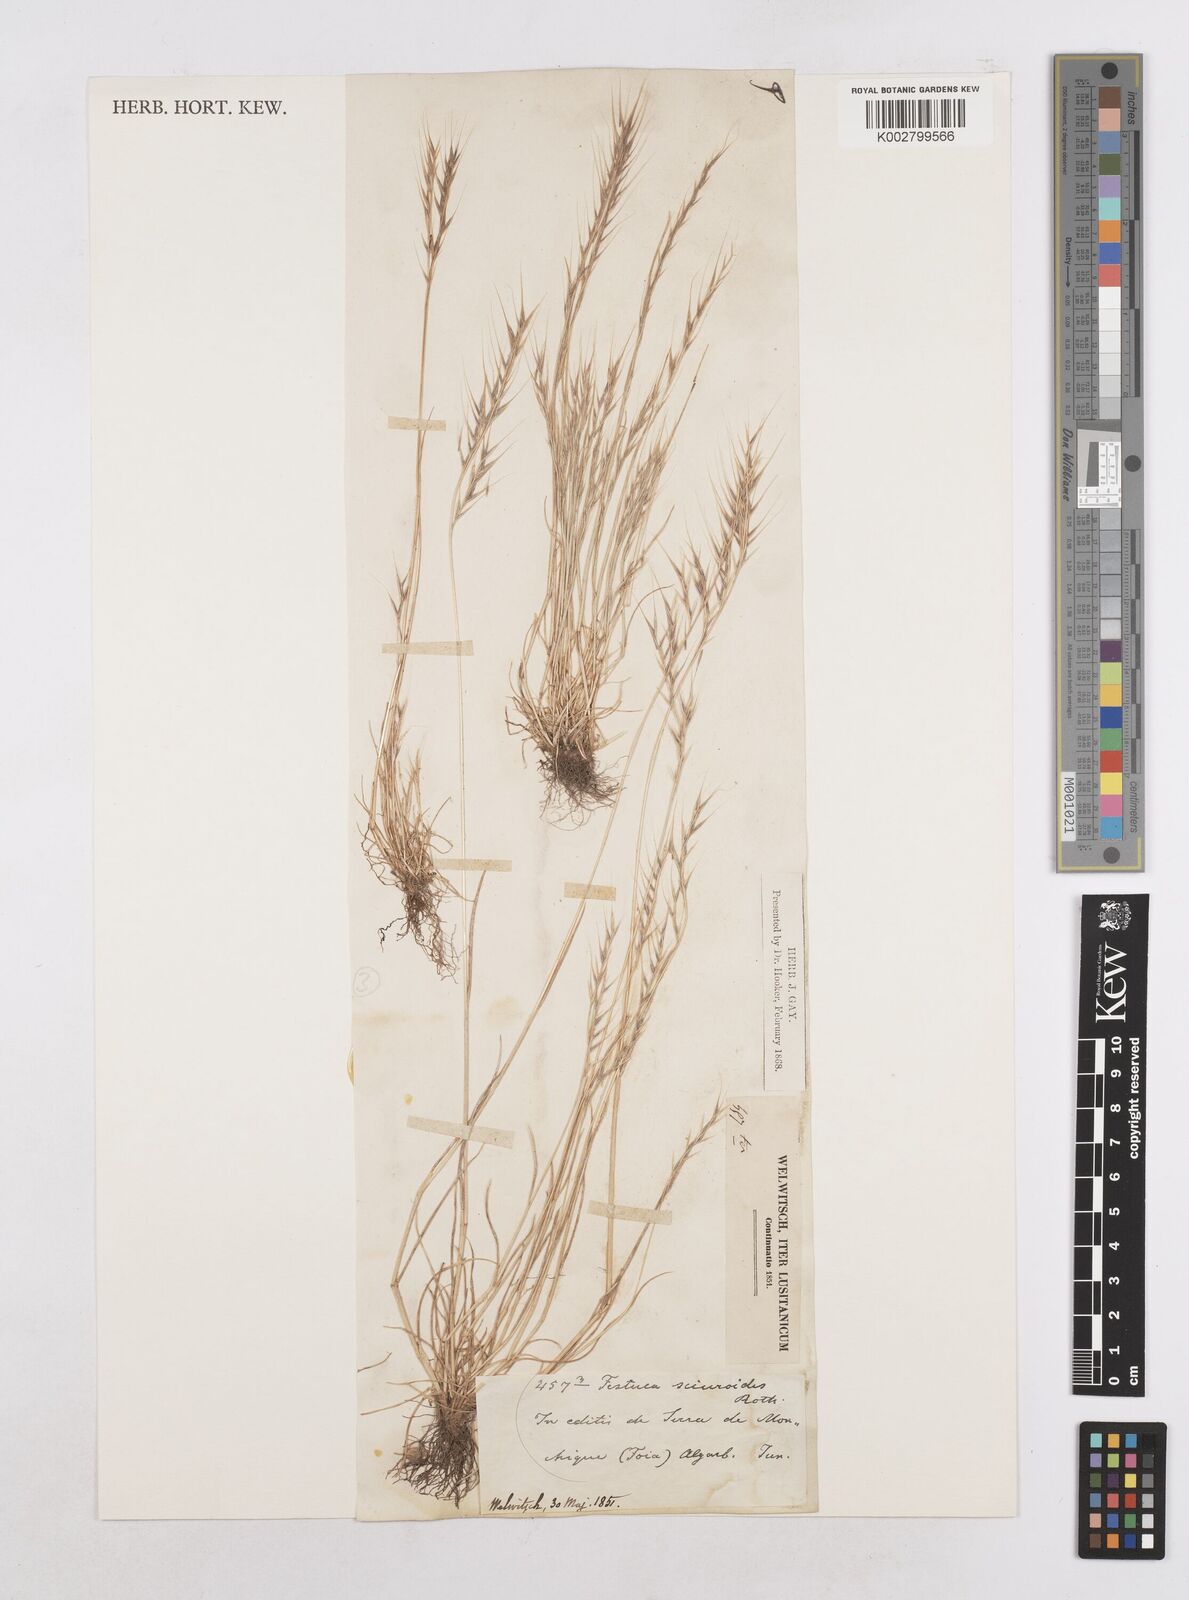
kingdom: Plantae
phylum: Tracheophyta
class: Liliopsida
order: Poales
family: Poaceae
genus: Festuca
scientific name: Festuca myuros
